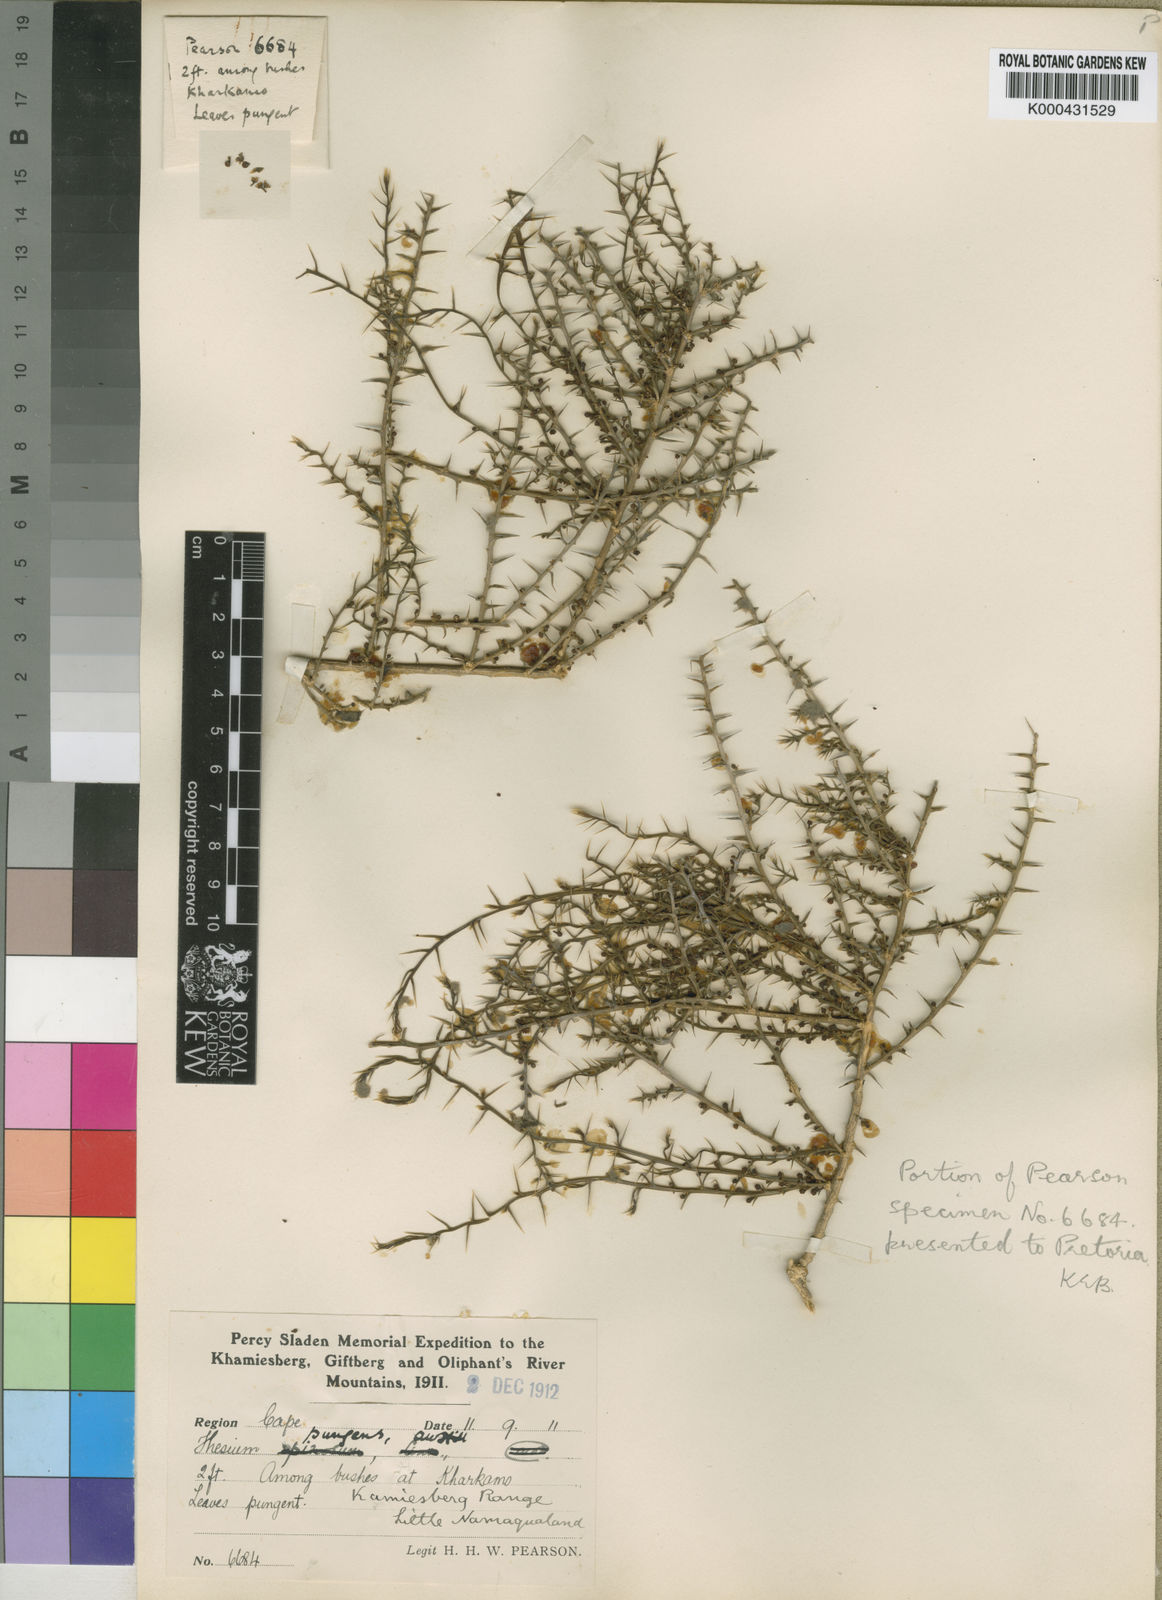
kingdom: Plantae
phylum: Tracheophyta
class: Magnoliopsida
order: Santalales
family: Thesiaceae
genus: Thesium
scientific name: Thesium pungens
